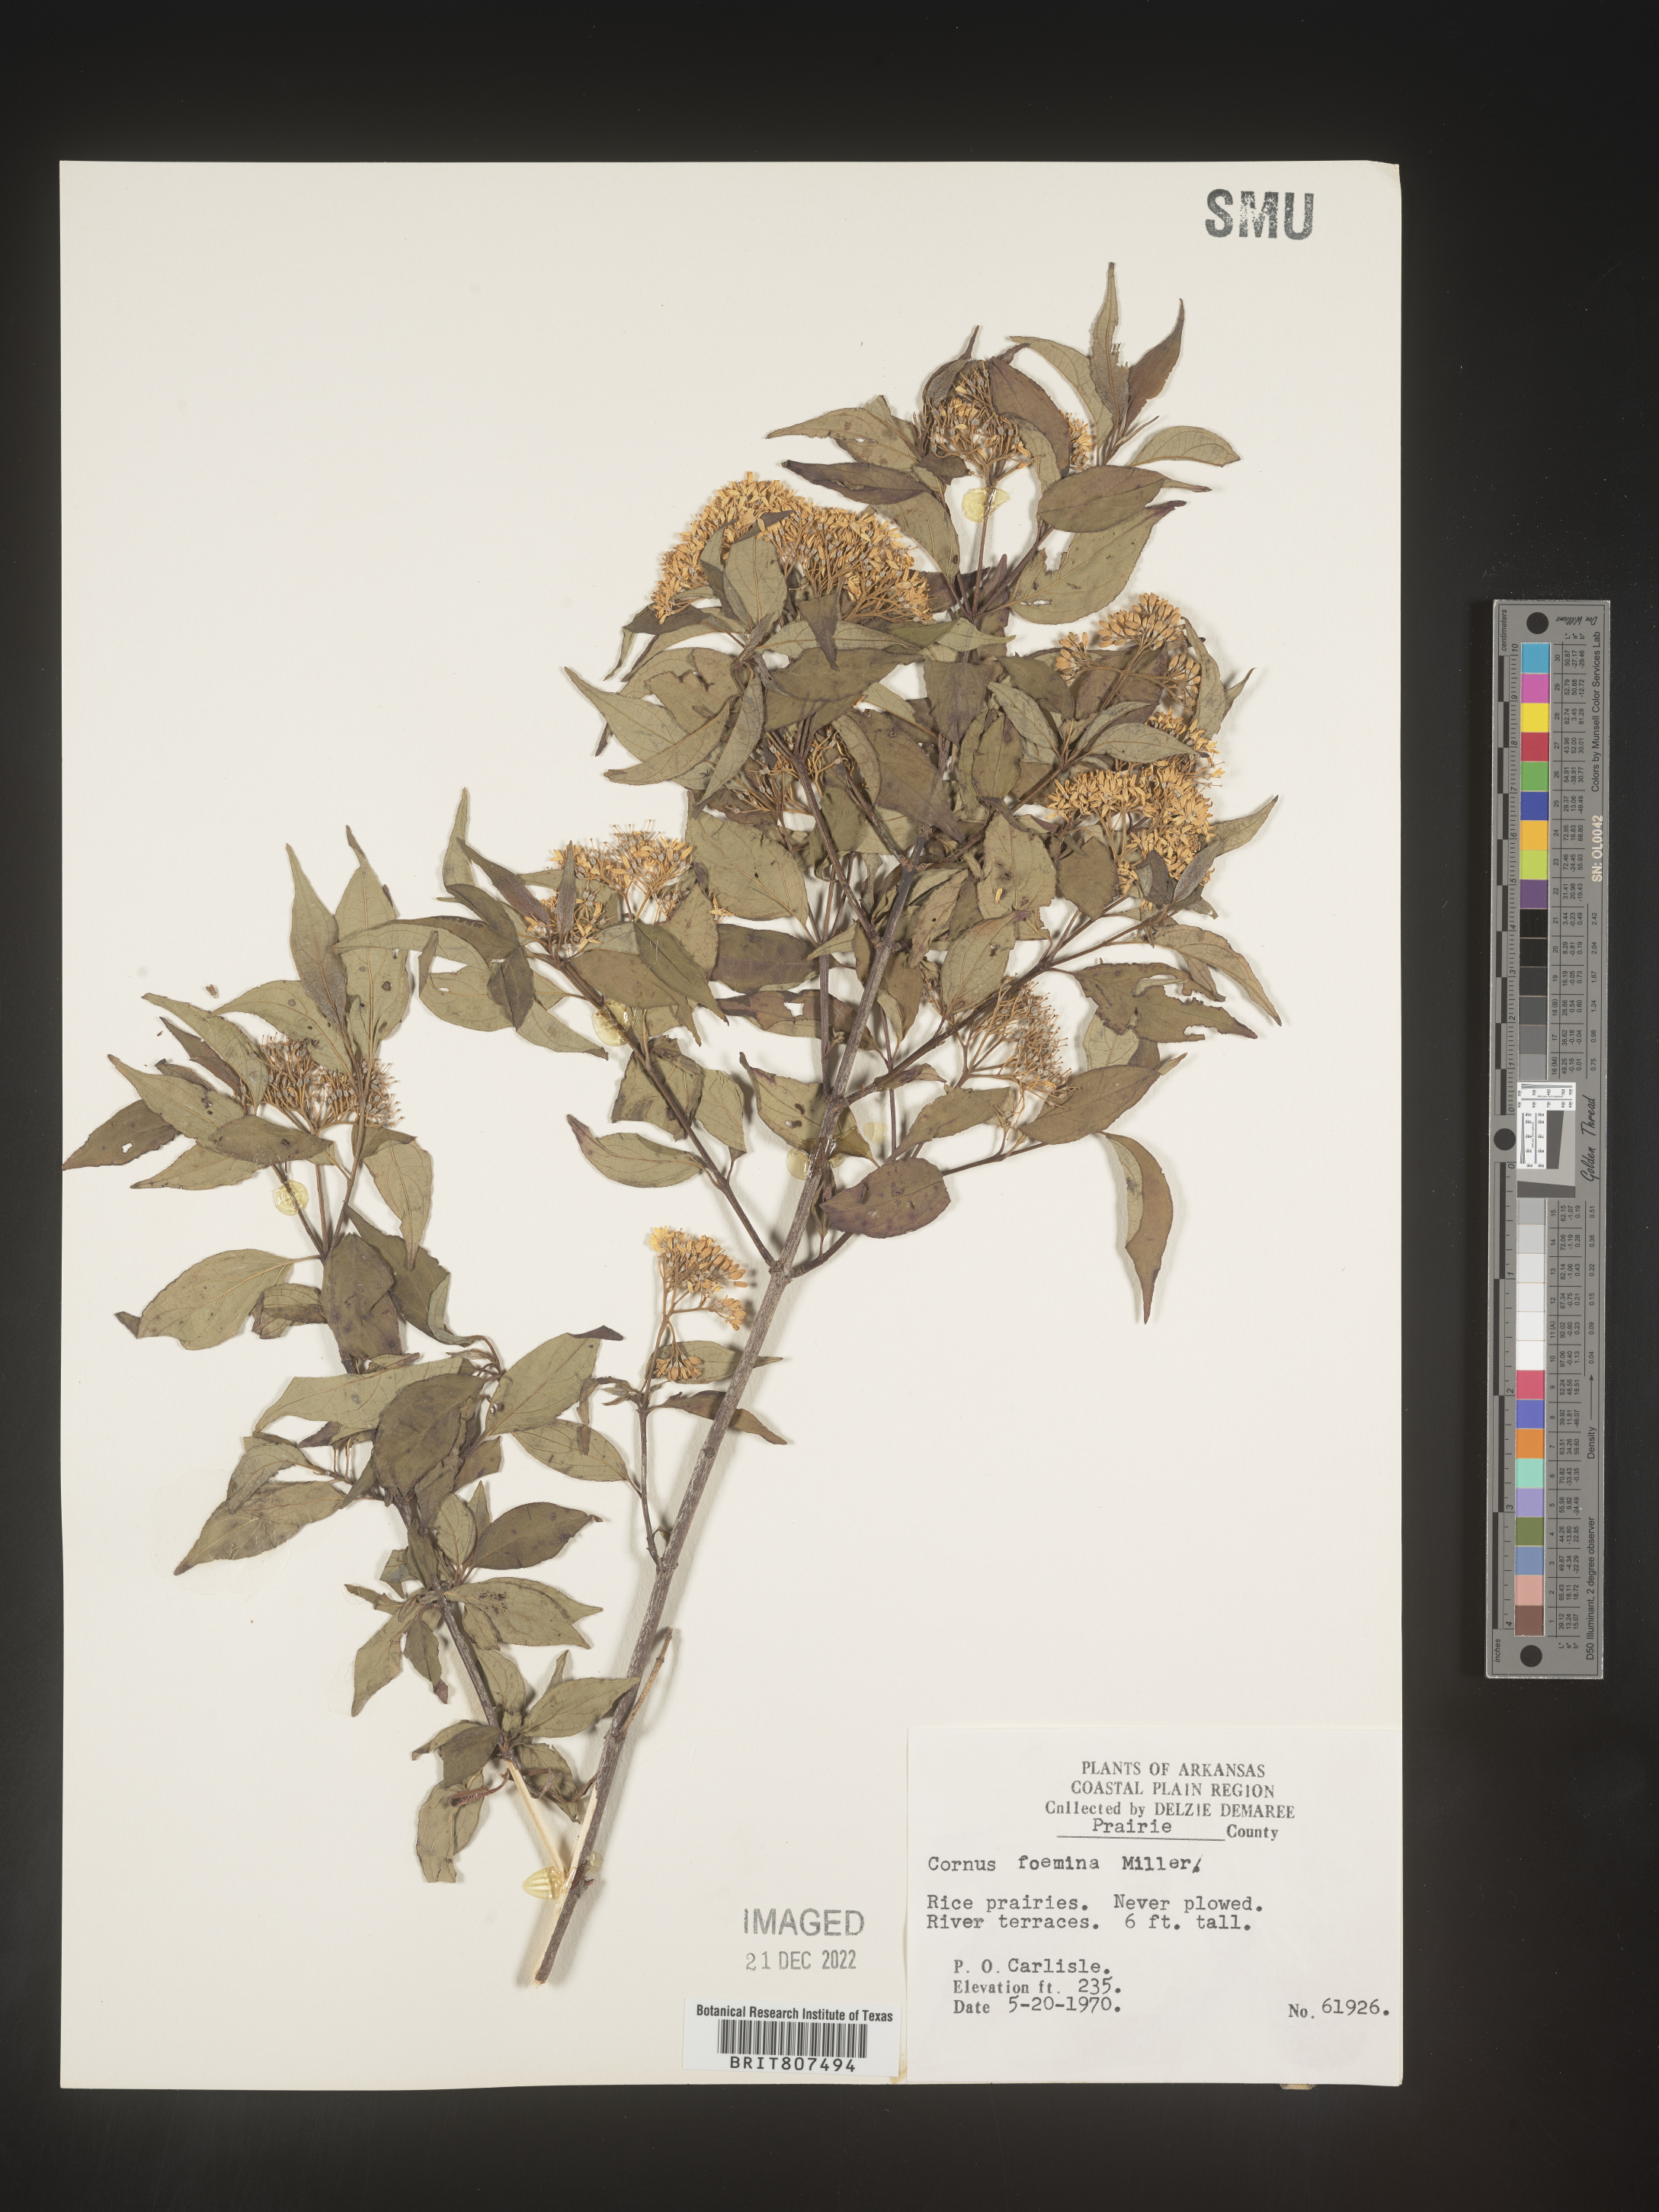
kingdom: Plantae
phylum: Tracheophyta
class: Magnoliopsida
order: Cornales
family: Cornaceae
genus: Cornus
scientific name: Cornus foemina
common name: Swamp dogwood
